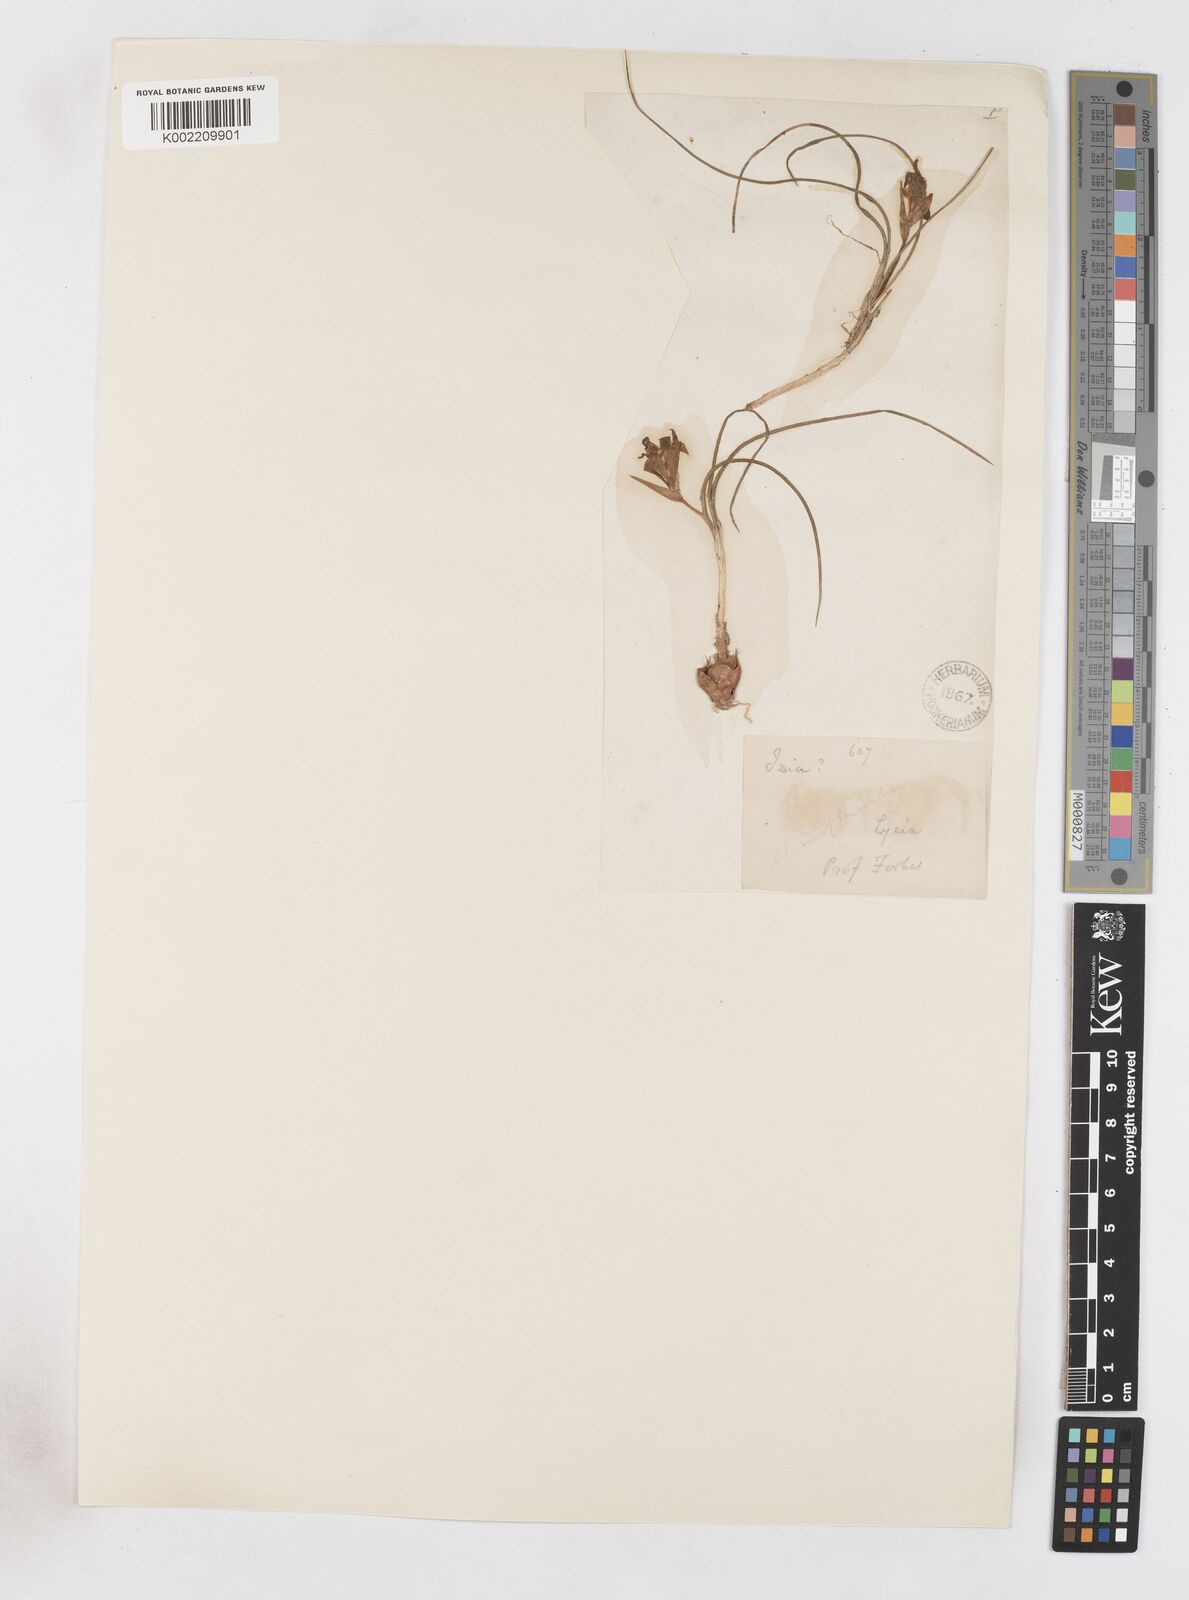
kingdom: Plantae
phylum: Tracheophyta
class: Liliopsida
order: Asparagales
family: Iridaceae
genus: Romulea
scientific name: Romulea bulbocodium
